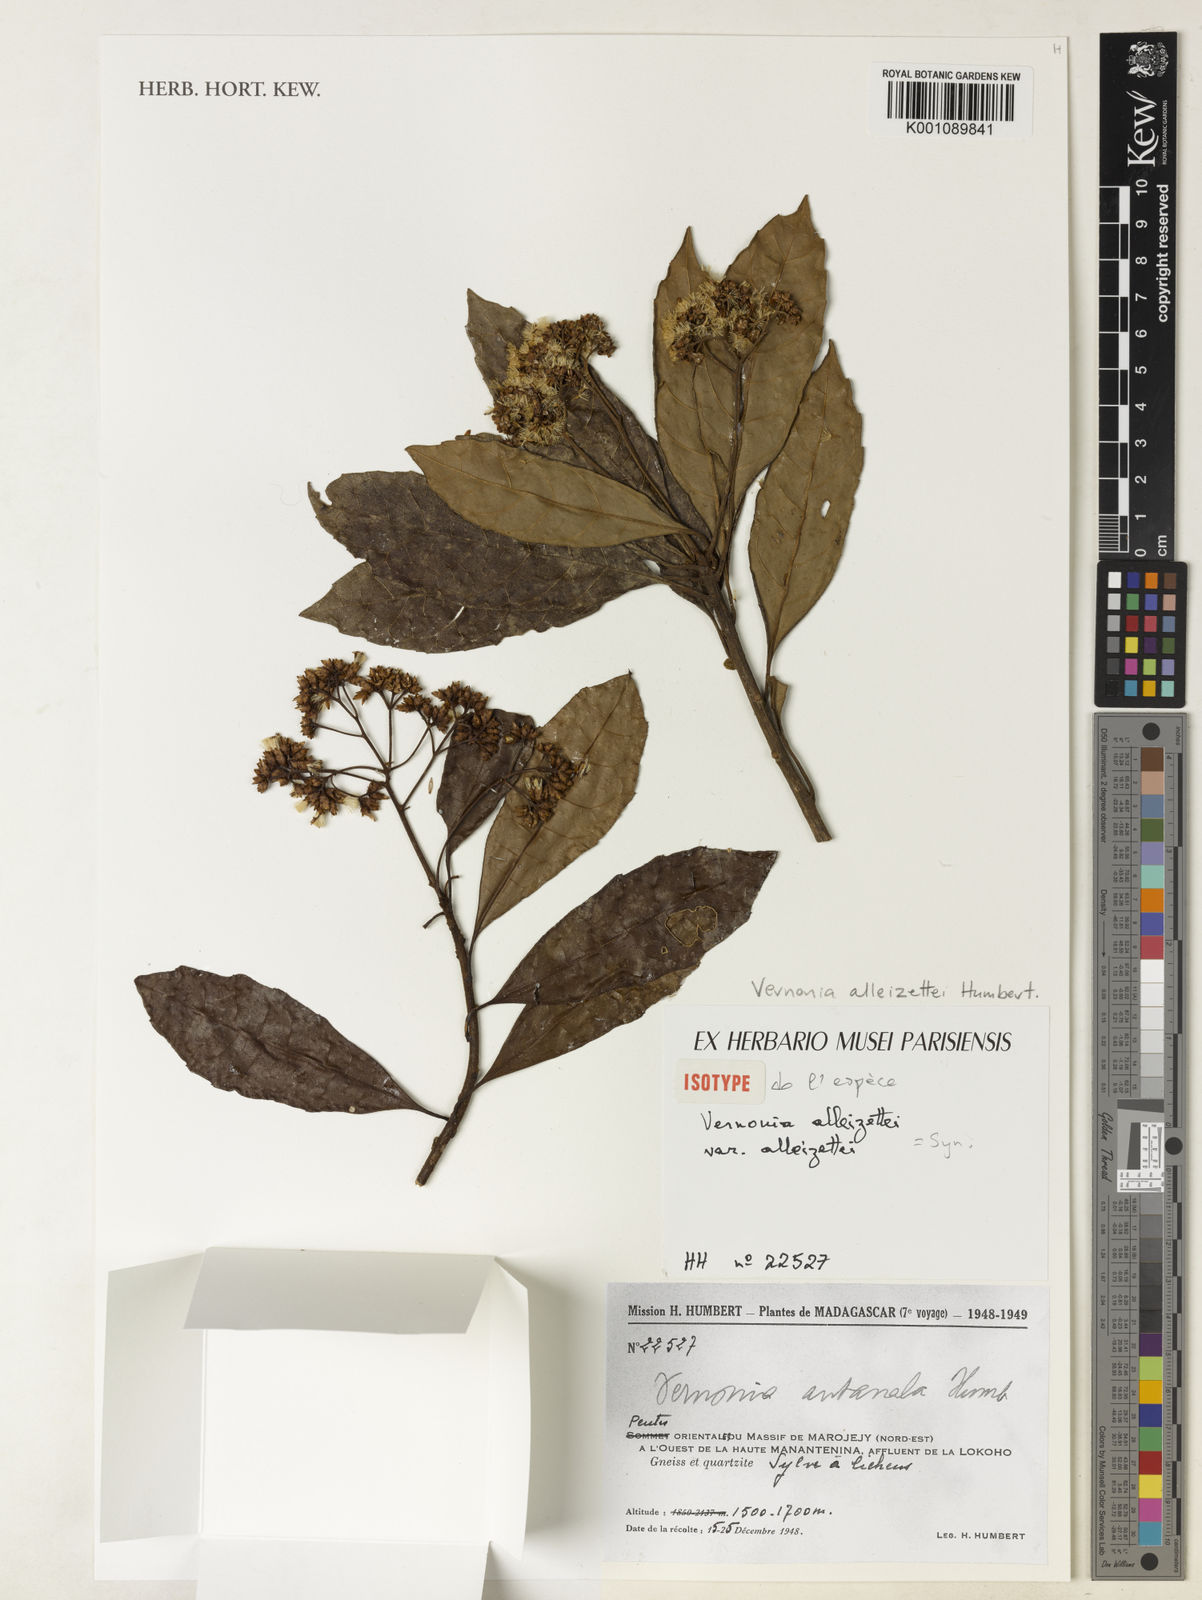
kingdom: Plantae
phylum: Tracheophyta
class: Magnoliopsida
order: Asterales
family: Asteraceae
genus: Vernonia
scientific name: Vernonia alleizettei
